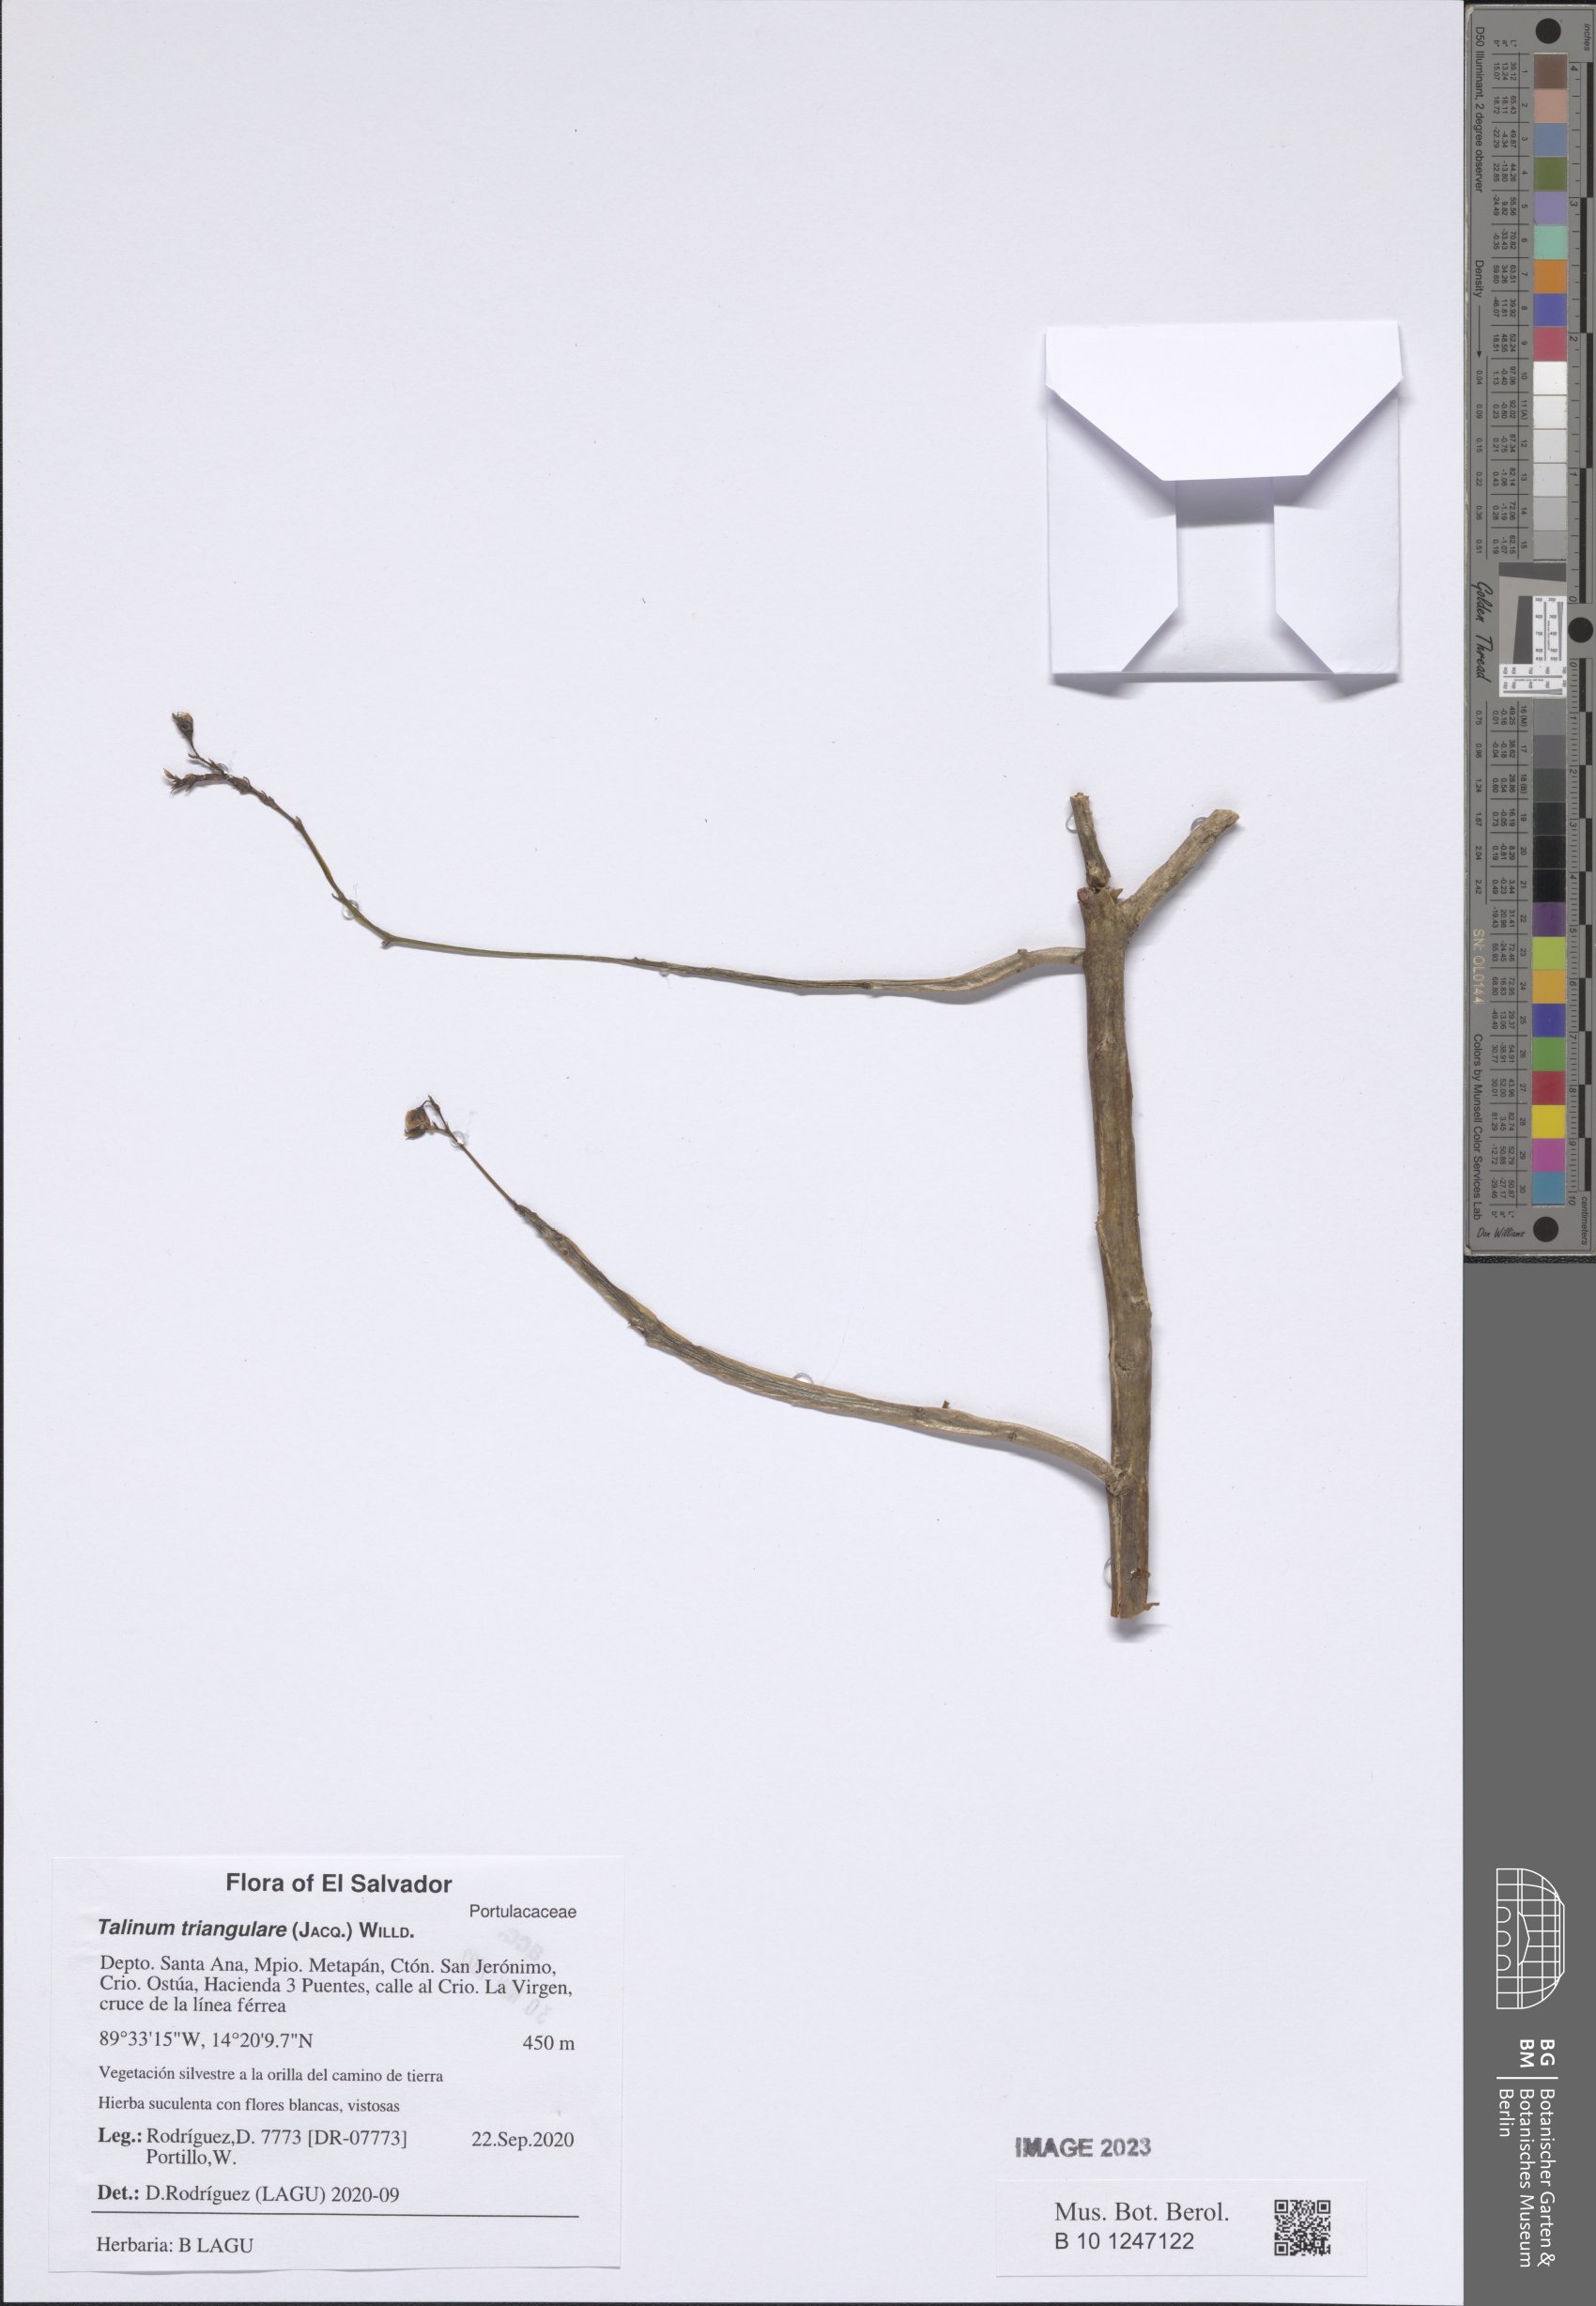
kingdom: Plantae
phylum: Tracheophyta
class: Magnoliopsida
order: Caryophyllales
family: Talinaceae
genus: Talinum
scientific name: Talinum fruticosum
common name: Verdolaga-francesa
